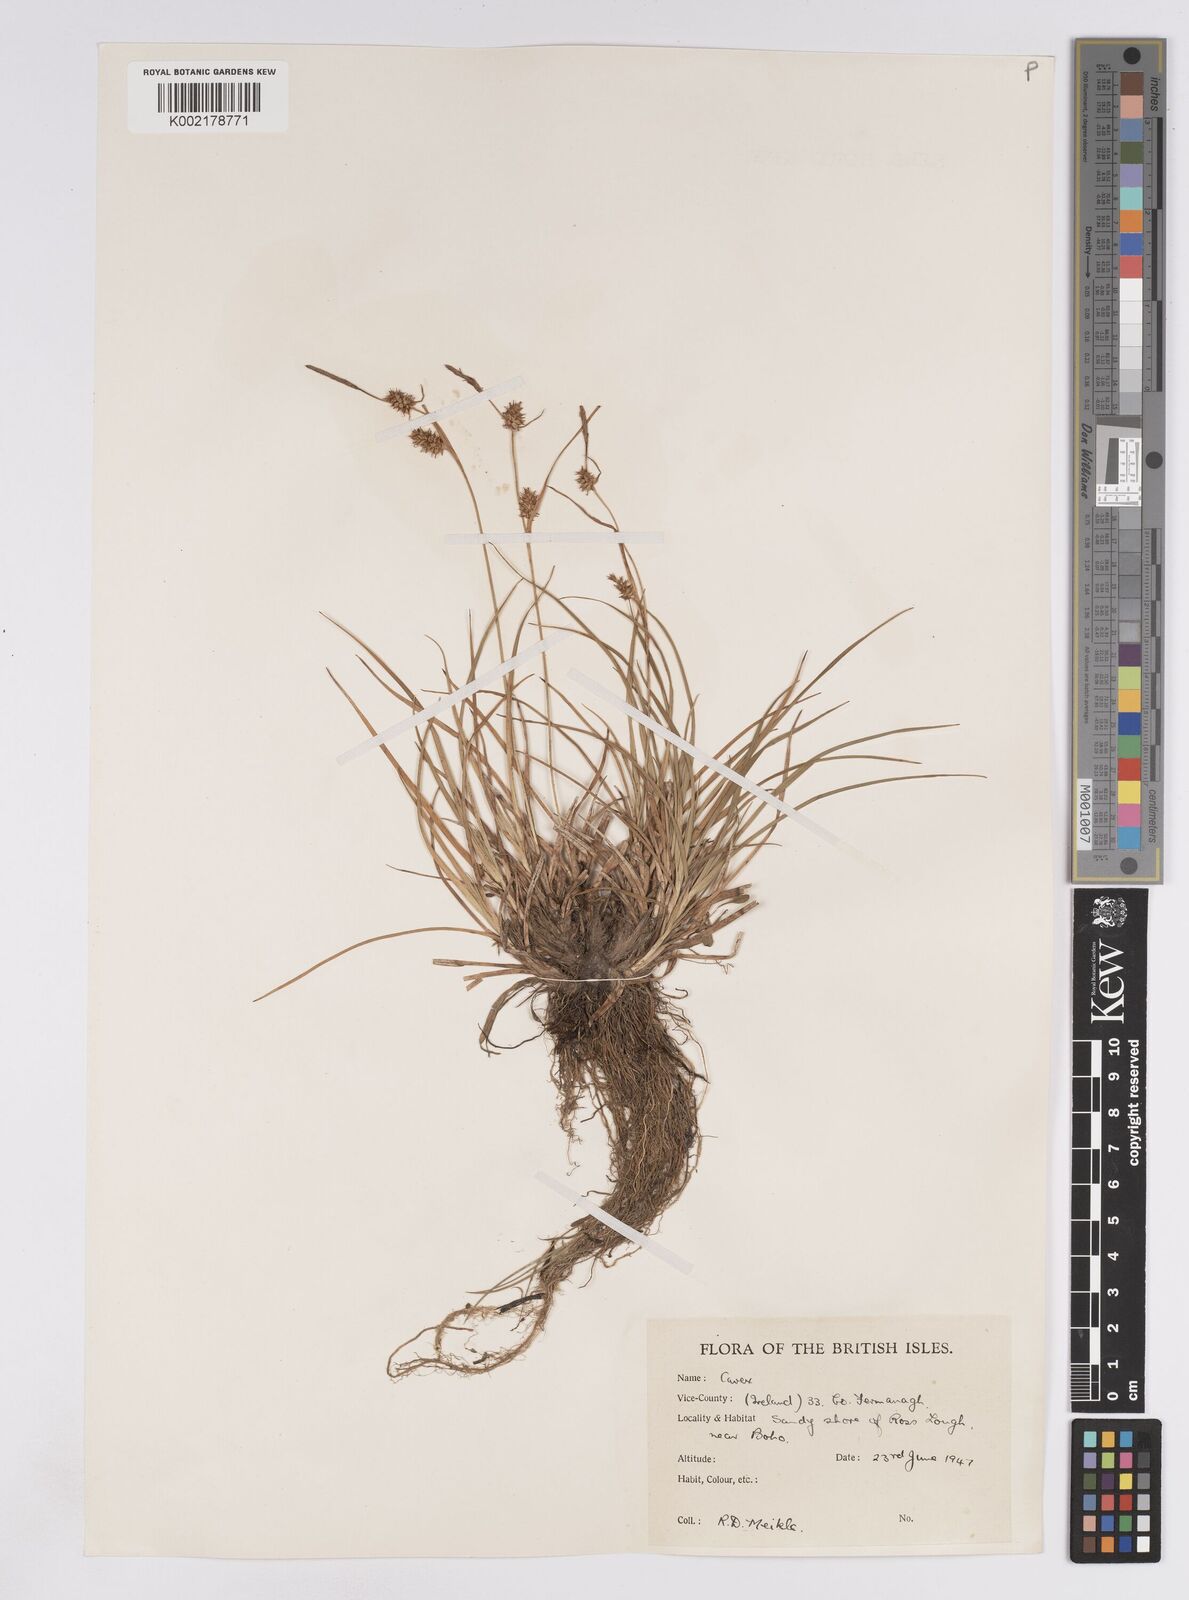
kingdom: Plantae
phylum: Tracheophyta
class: Liliopsida
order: Poales
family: Cyperaceae
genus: Carex
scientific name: Carex lepidocarpa
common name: Long-stalked yellow-sedge
